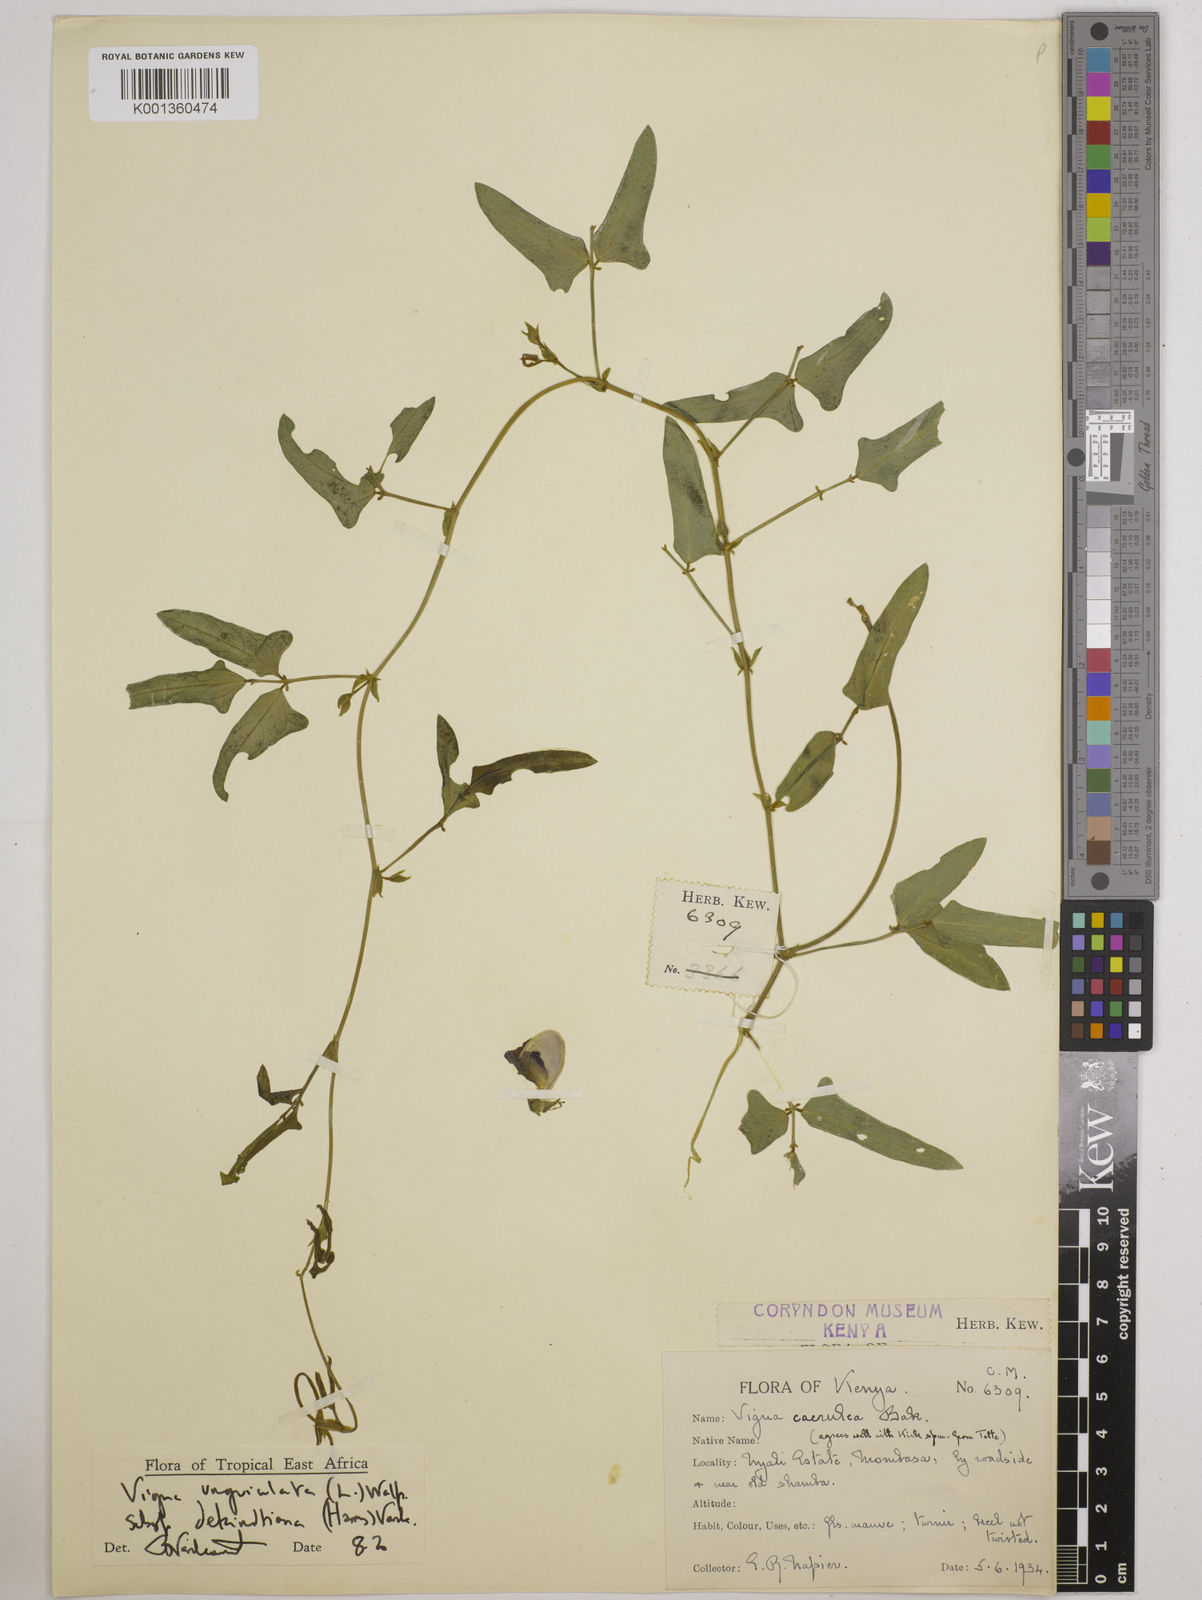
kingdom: Plantae
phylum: Tracheophyta
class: Magnoliopsida
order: Fabales
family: Fabaceae
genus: Vigna
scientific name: Vigna
